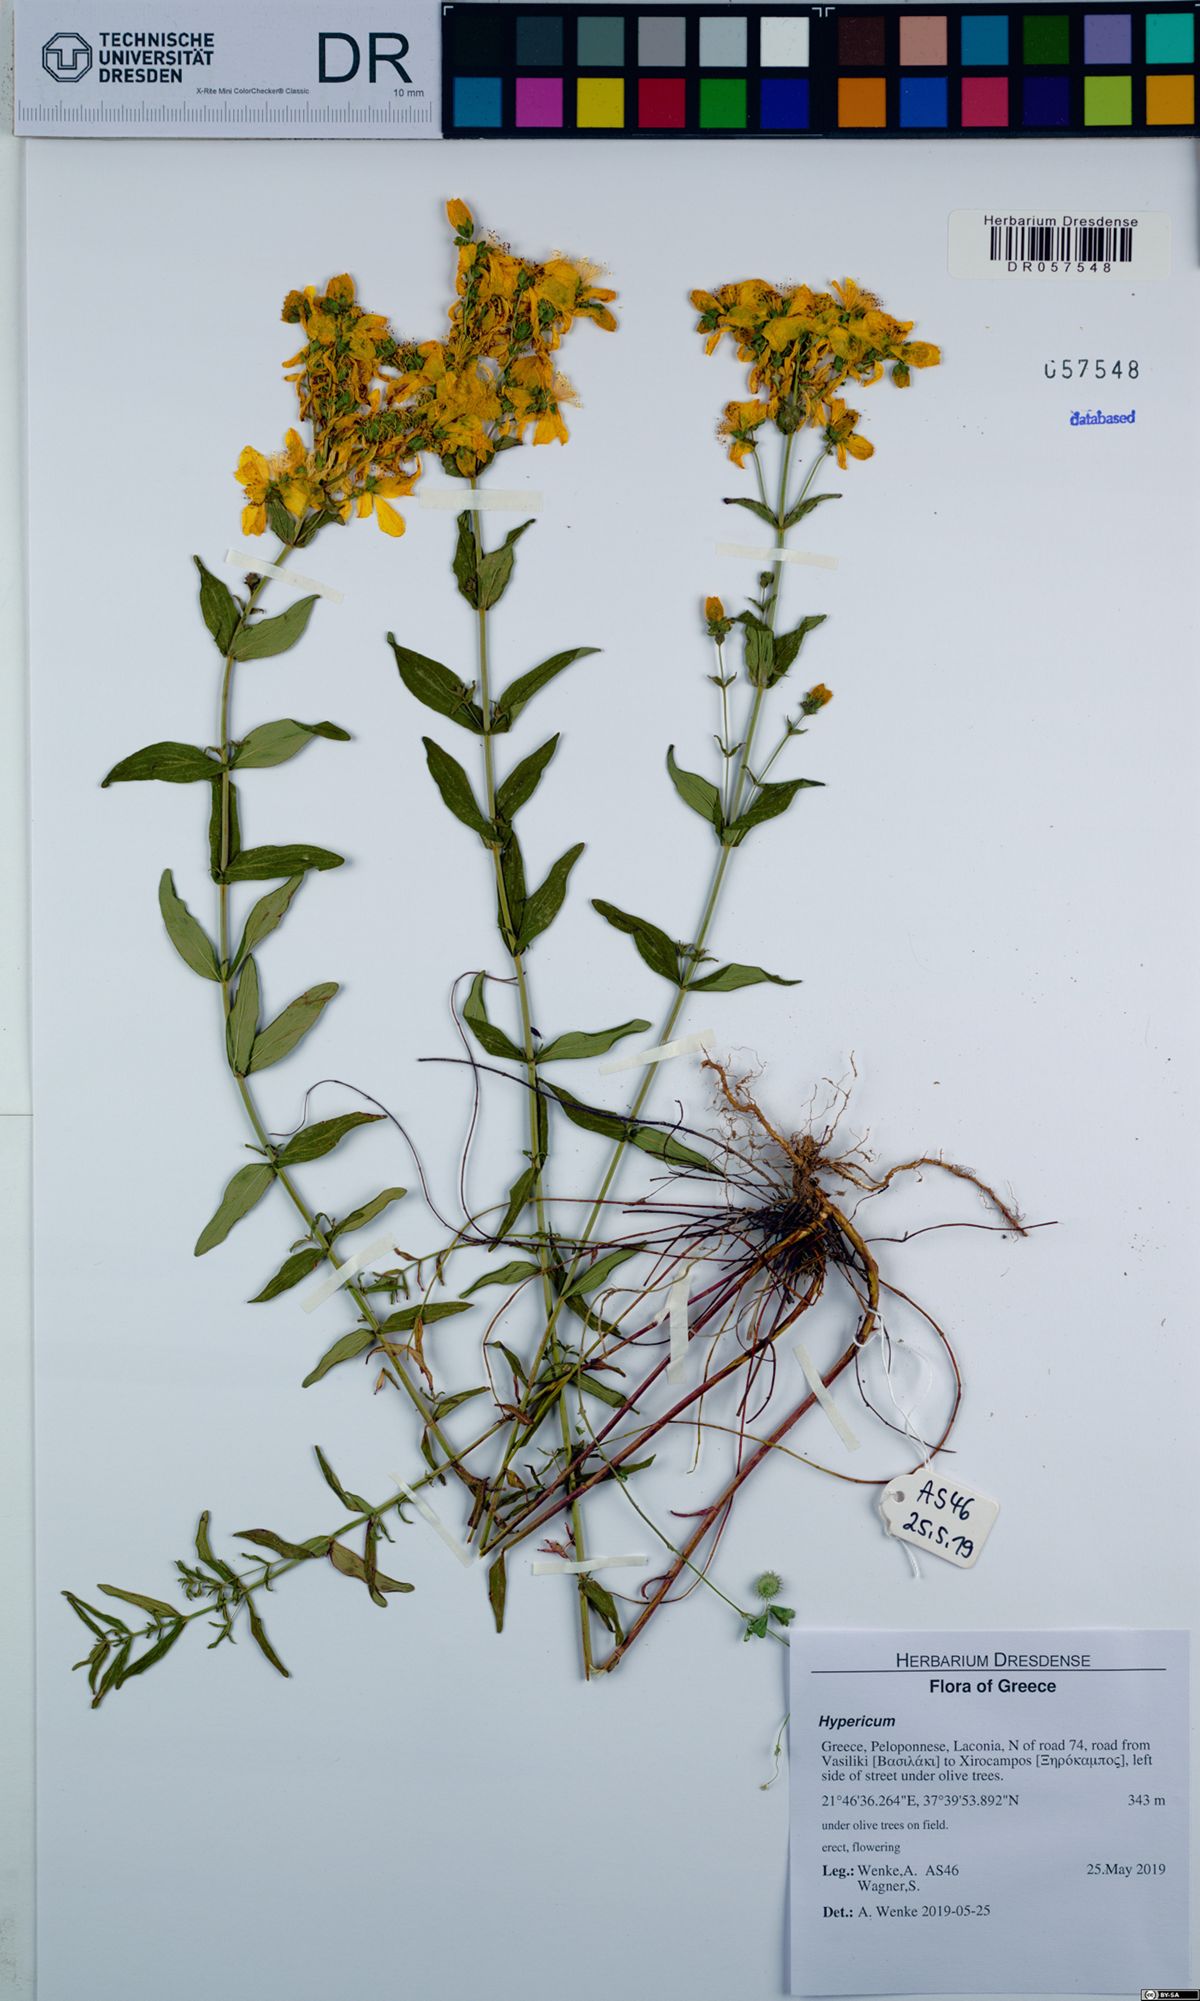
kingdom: Plantae
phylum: Tracheophyta
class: Magnoliopsida
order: Malpighiales
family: Hypericaceae
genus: Hypericum
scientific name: Hypericum perfoliatum
